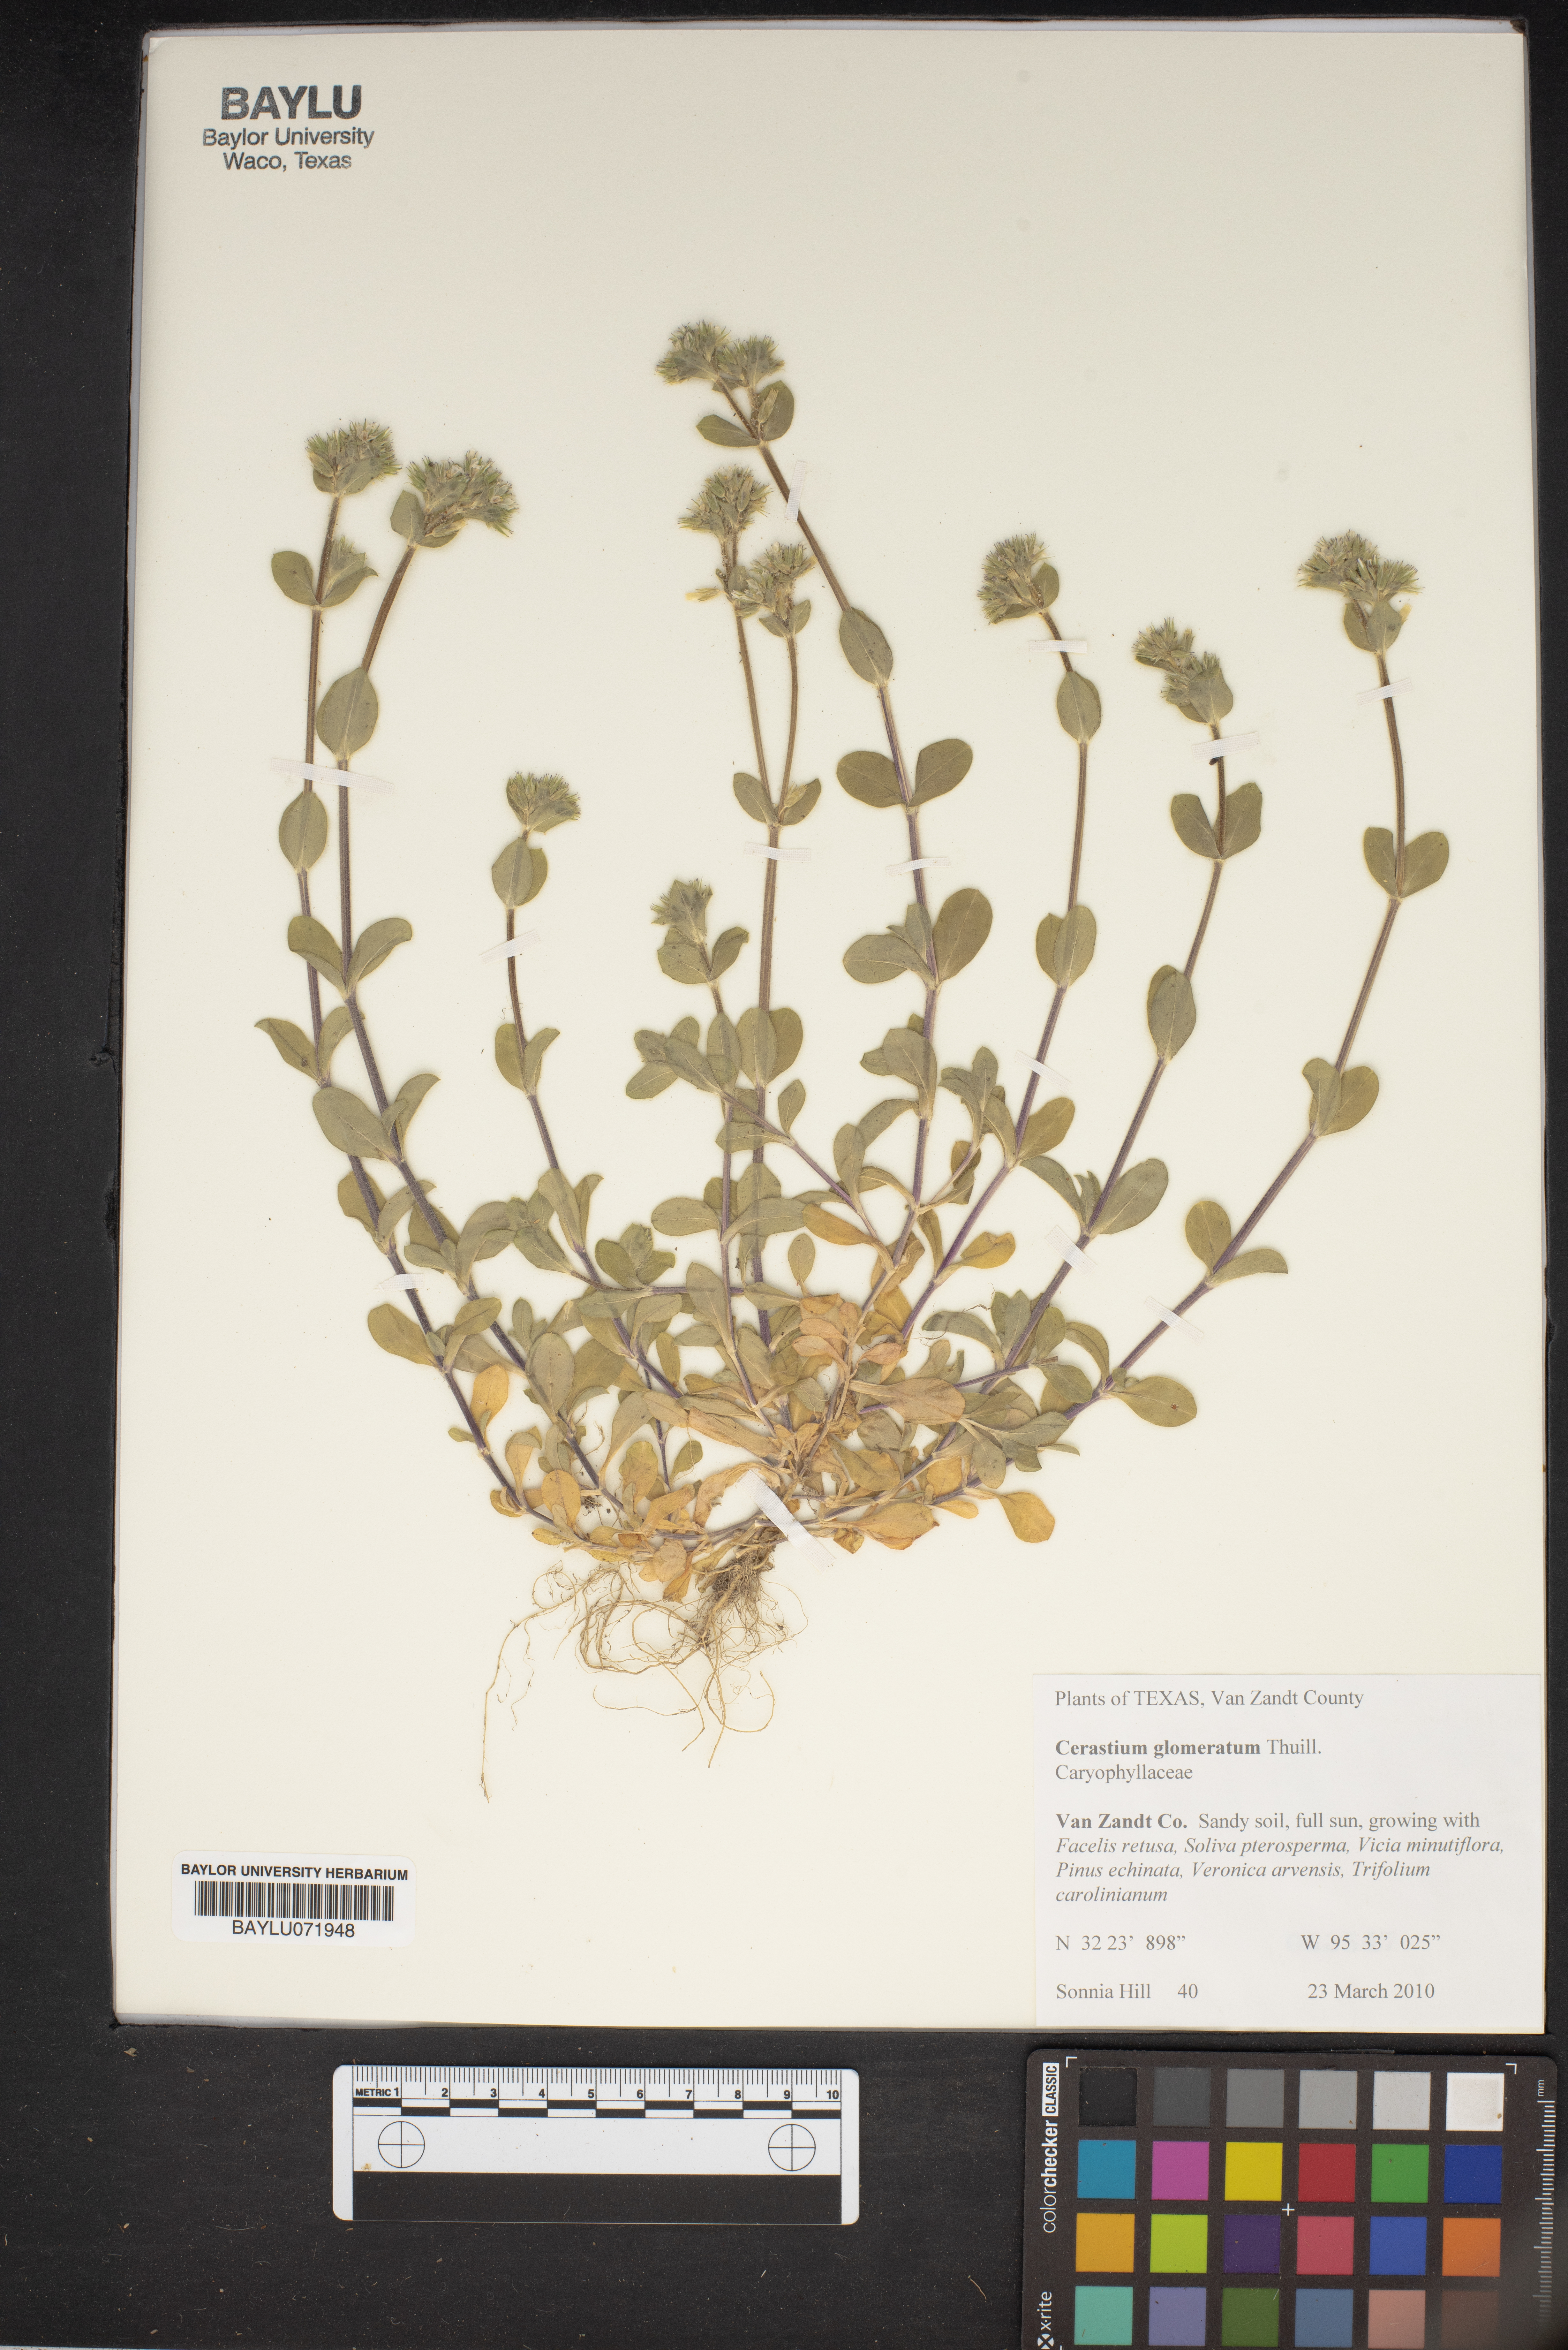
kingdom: Plantae
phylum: Tracheophyta
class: Magnoliopsida
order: Caryophyllales
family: Caryophyllaceae
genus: Cerastium
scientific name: Cerastium glomeratum
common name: Sticky chickweed
